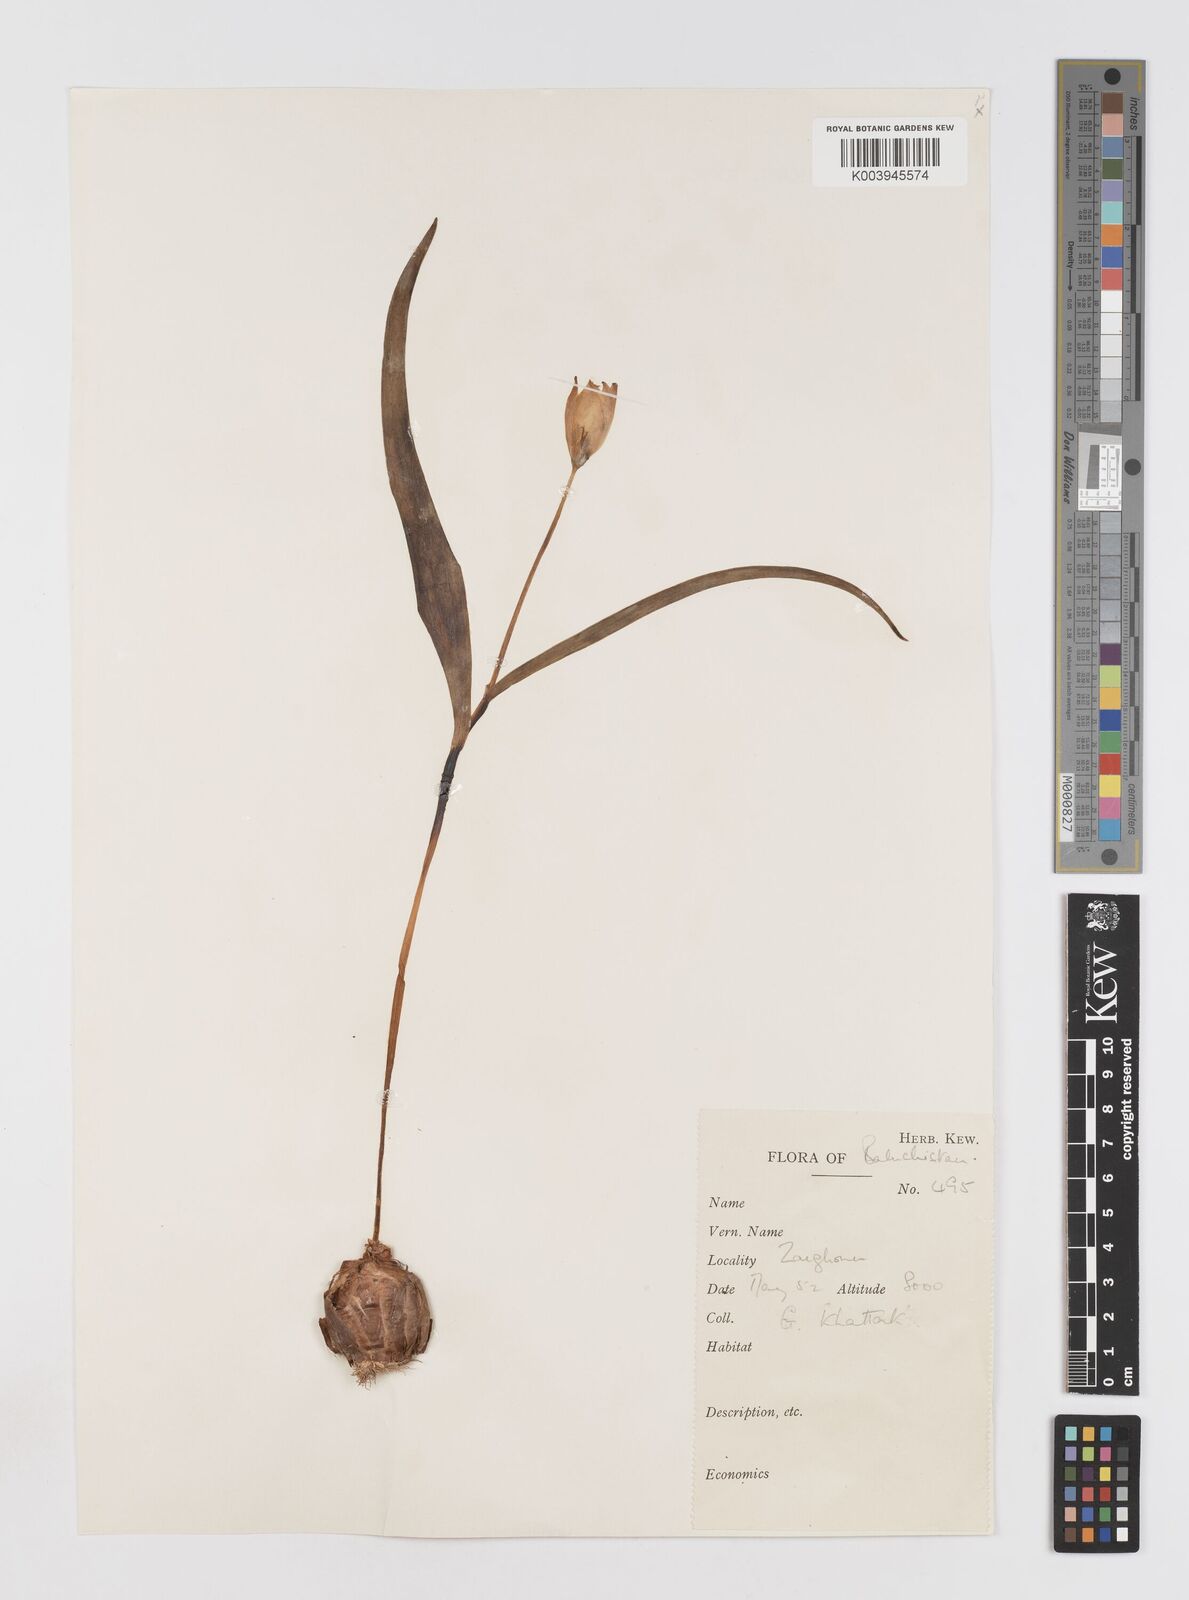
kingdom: Plantae
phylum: Tracheophyta
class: Liliopsida
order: Liliales
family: Liliaceae
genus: Tulipa
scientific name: Tulipa biflora
